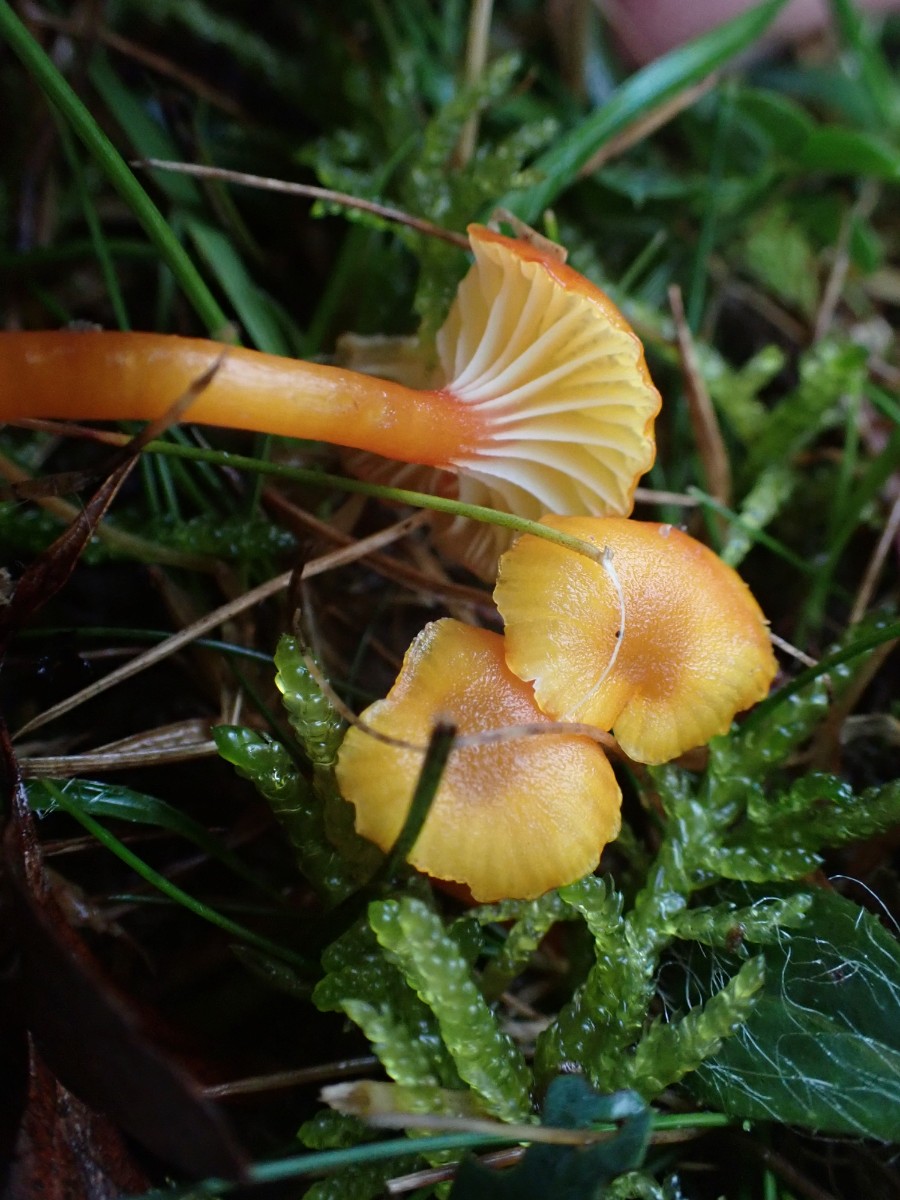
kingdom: Fungi
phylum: Basidiomycota
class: Agaricomycetes
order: Agaricales
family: Hygrophoraceae
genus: Hygrocybe
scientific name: Hygrocybe insipida
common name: liden vokshat
